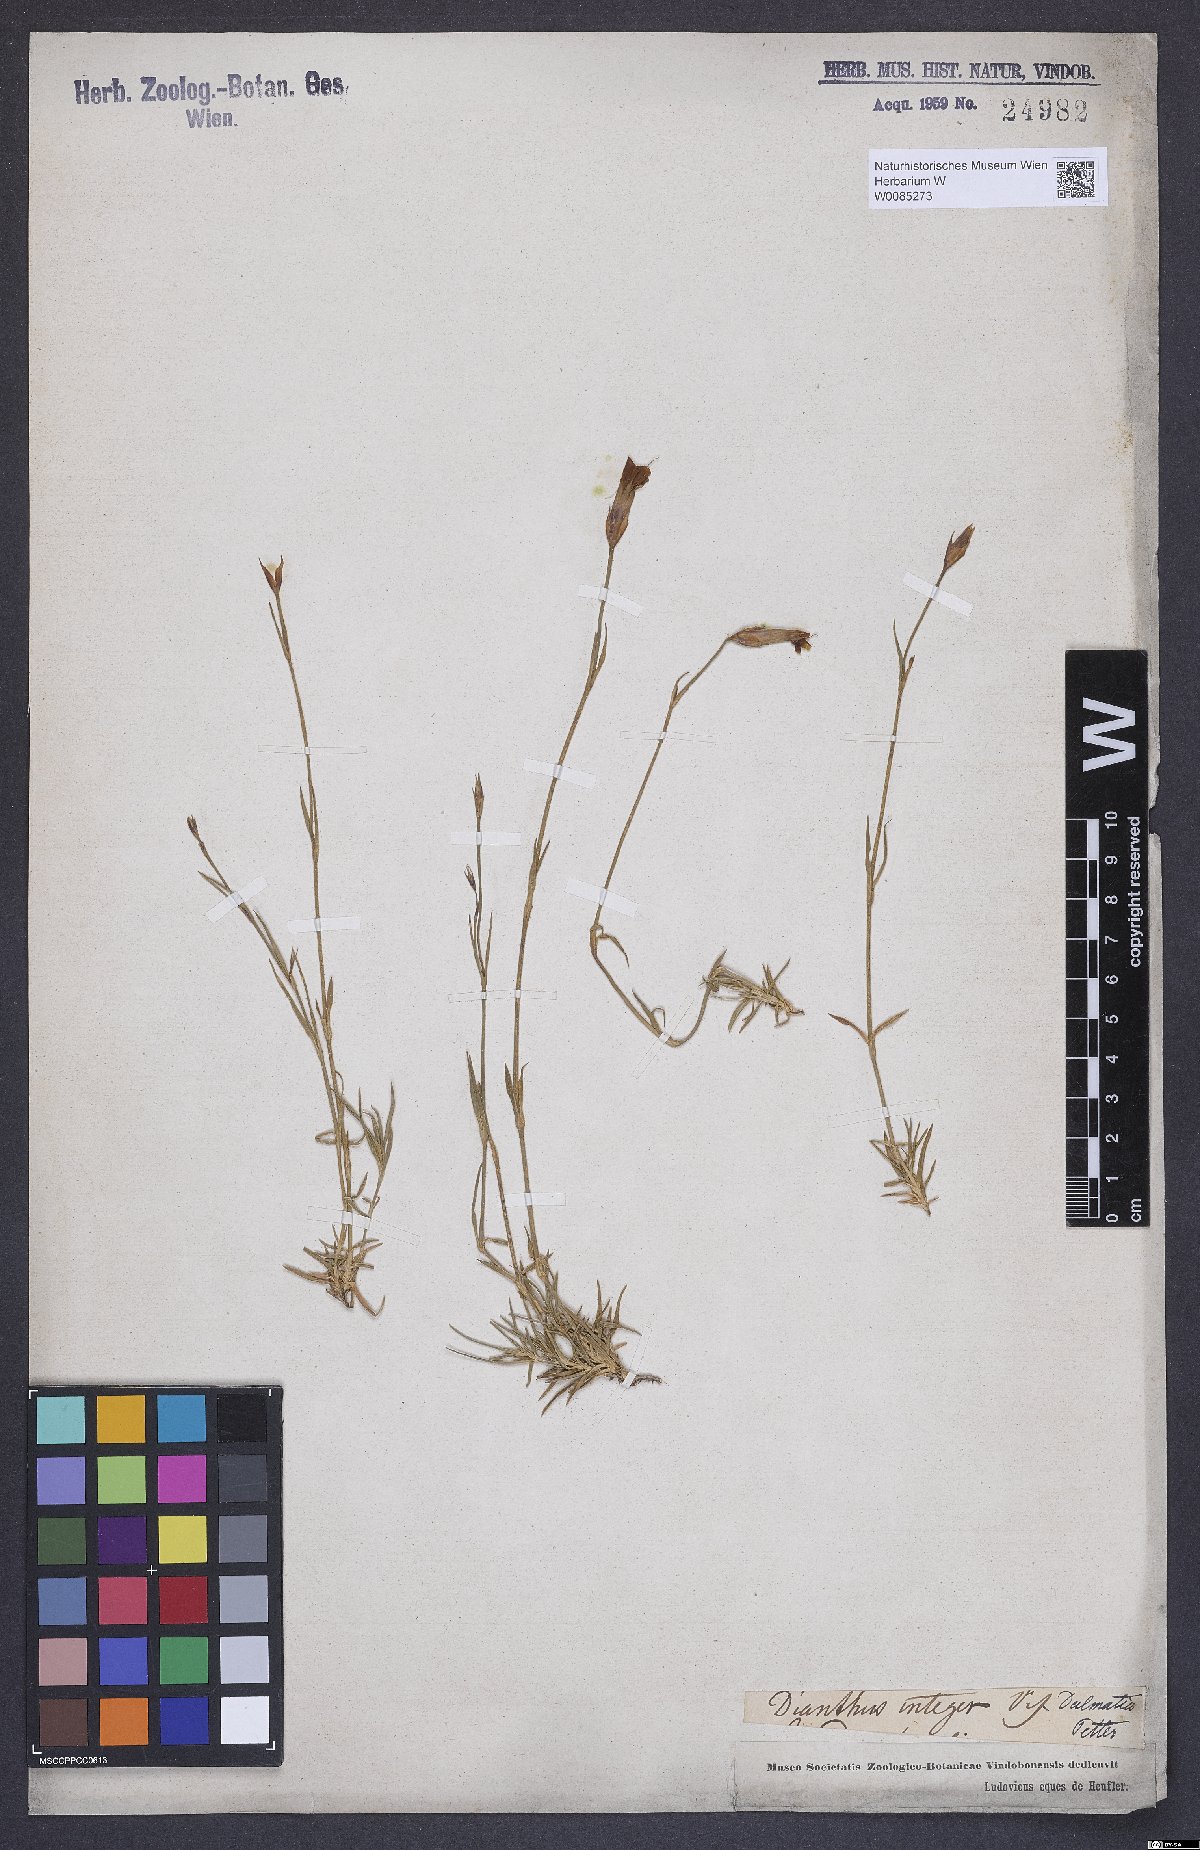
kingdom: Plantae
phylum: Tracheophyta
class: Magnoliopsida
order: Caryophyllales
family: Caryophyllaceae
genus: Dianthus
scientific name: Dianthus petraeus
